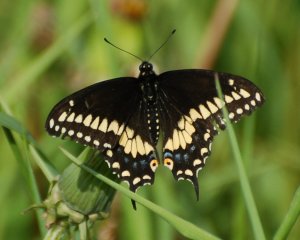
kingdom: Animalia
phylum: Arthropoda
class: Insecta
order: Lepidoptera
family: Papilionidae
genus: Papilio
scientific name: Papilio polyxenes
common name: Black Swallowtail
